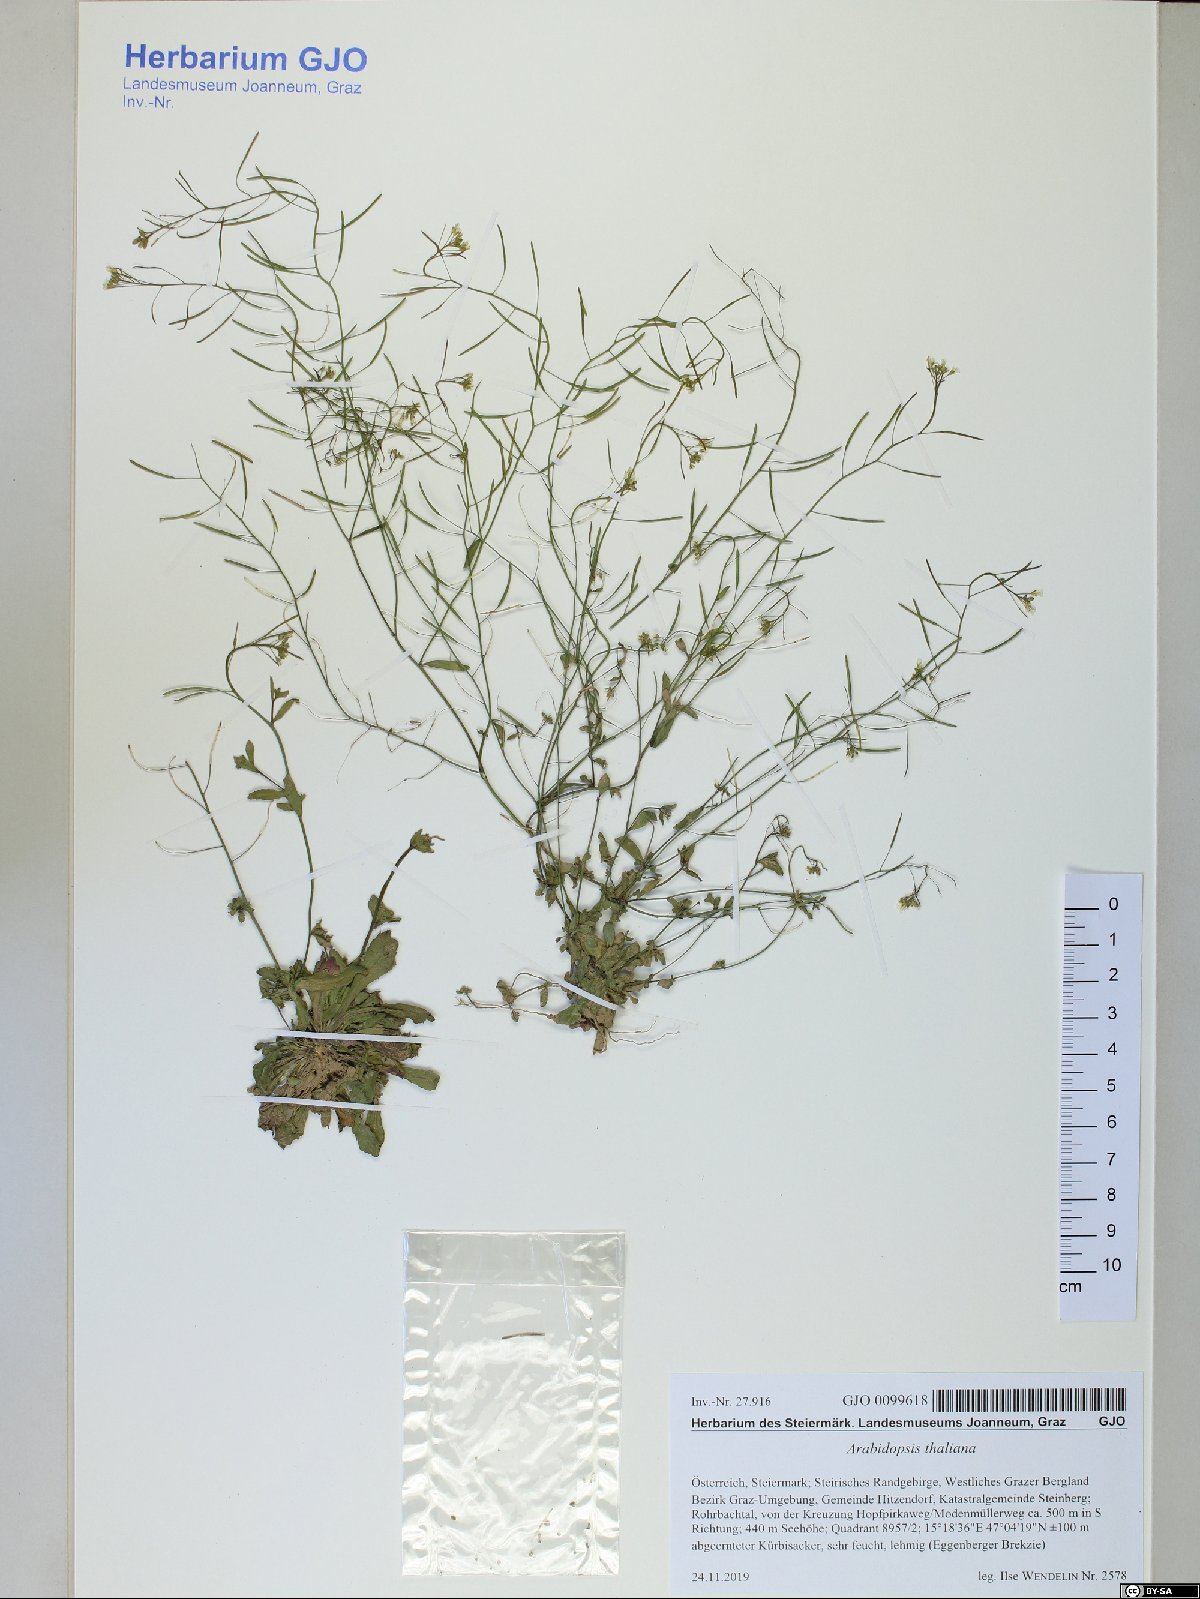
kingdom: Plantae
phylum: Tracheophyta
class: Magnoliopsida
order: Brassicales
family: Brassicaceae
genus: Arabidopsis
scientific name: Arabidopsis thaliana
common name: Thale cress
